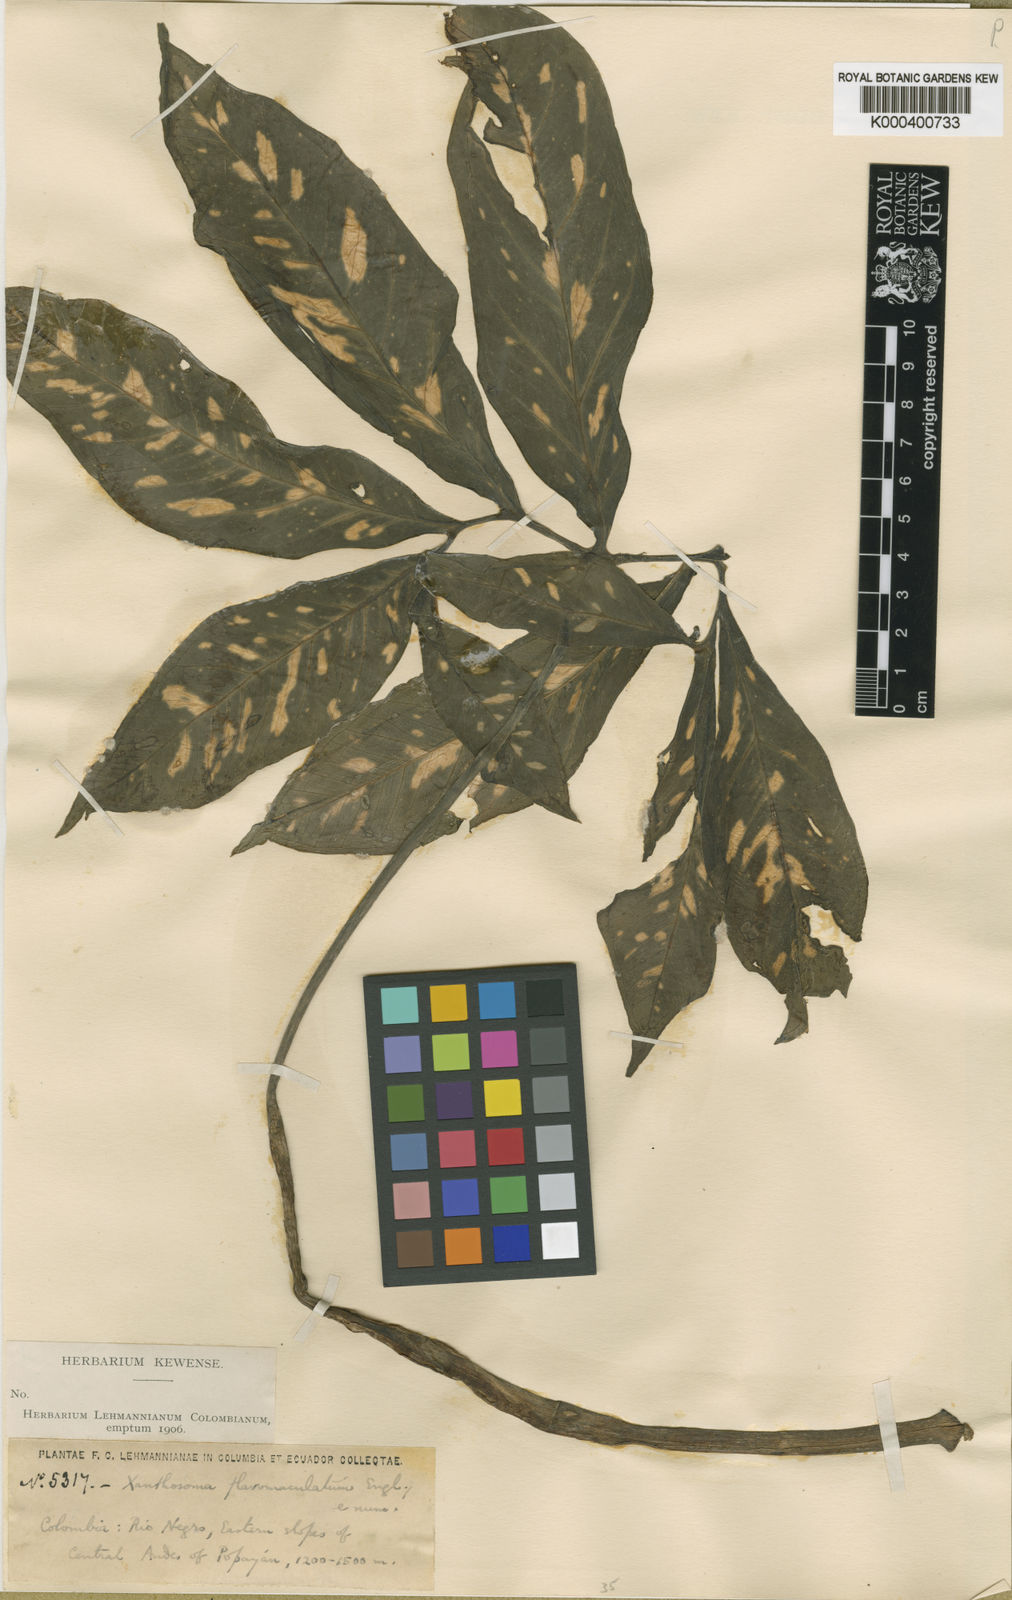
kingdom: Plantae
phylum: Tracheophyta
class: Liliopsida
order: Alismatales
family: Araceae
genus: Xanthosoma
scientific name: Xanthosoma flavomaculatum
